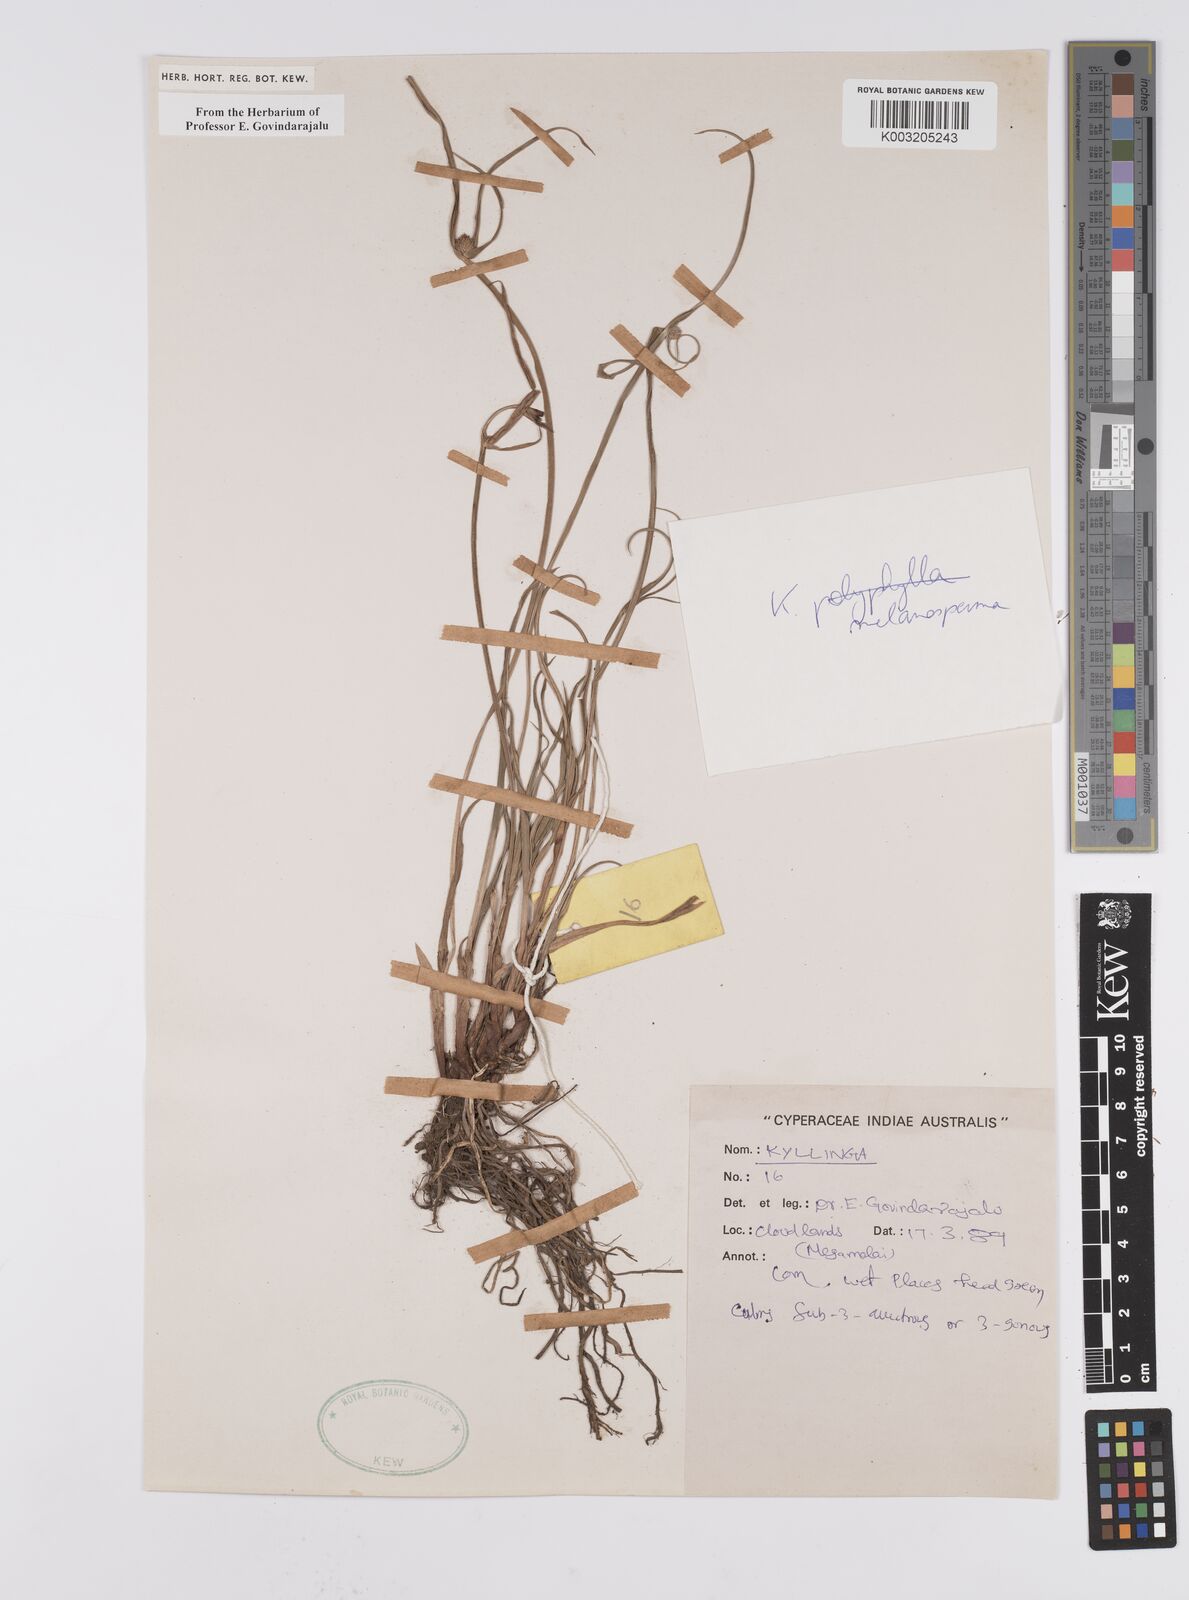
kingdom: Plantae
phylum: Tracheophyta
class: Liliopsida
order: Poales
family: Cyperaceae
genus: Cyperus
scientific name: Cyperus melanospermus
